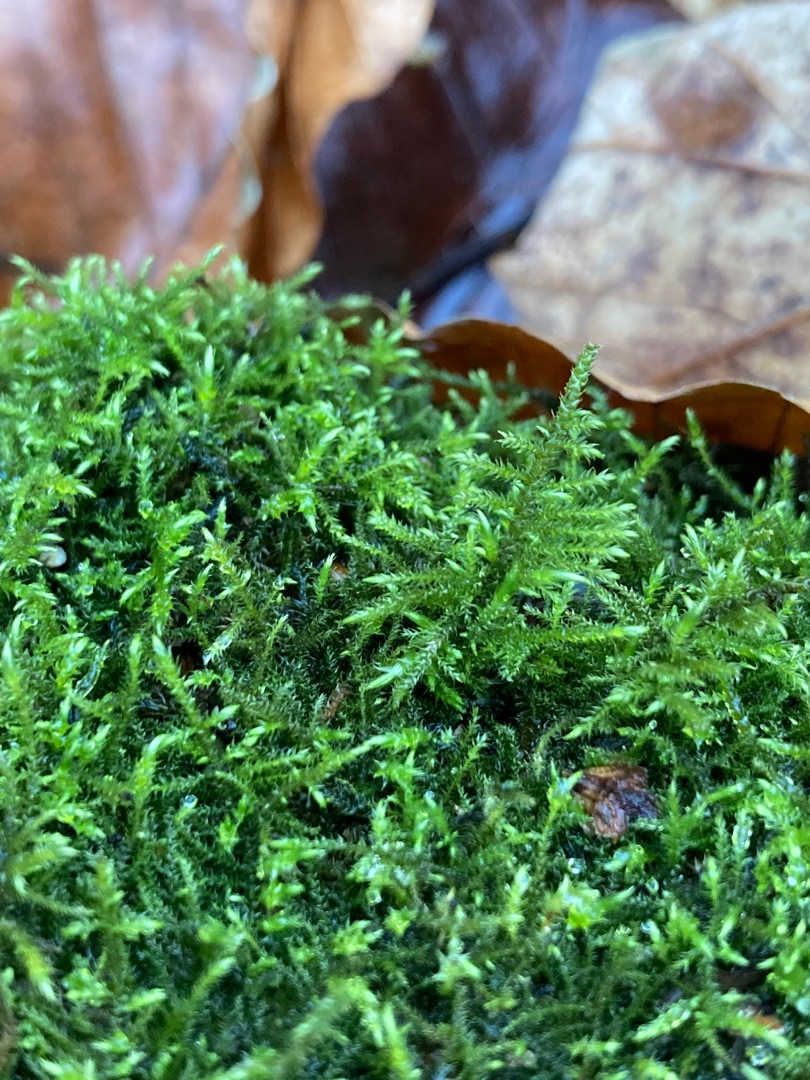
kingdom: Plantae
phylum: Bryophyta
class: Bryopsida
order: Hypnales
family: Amblystegiaceae
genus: Cratoneuron
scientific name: Cratoneuron filicinum
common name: Grøn eremitmos
